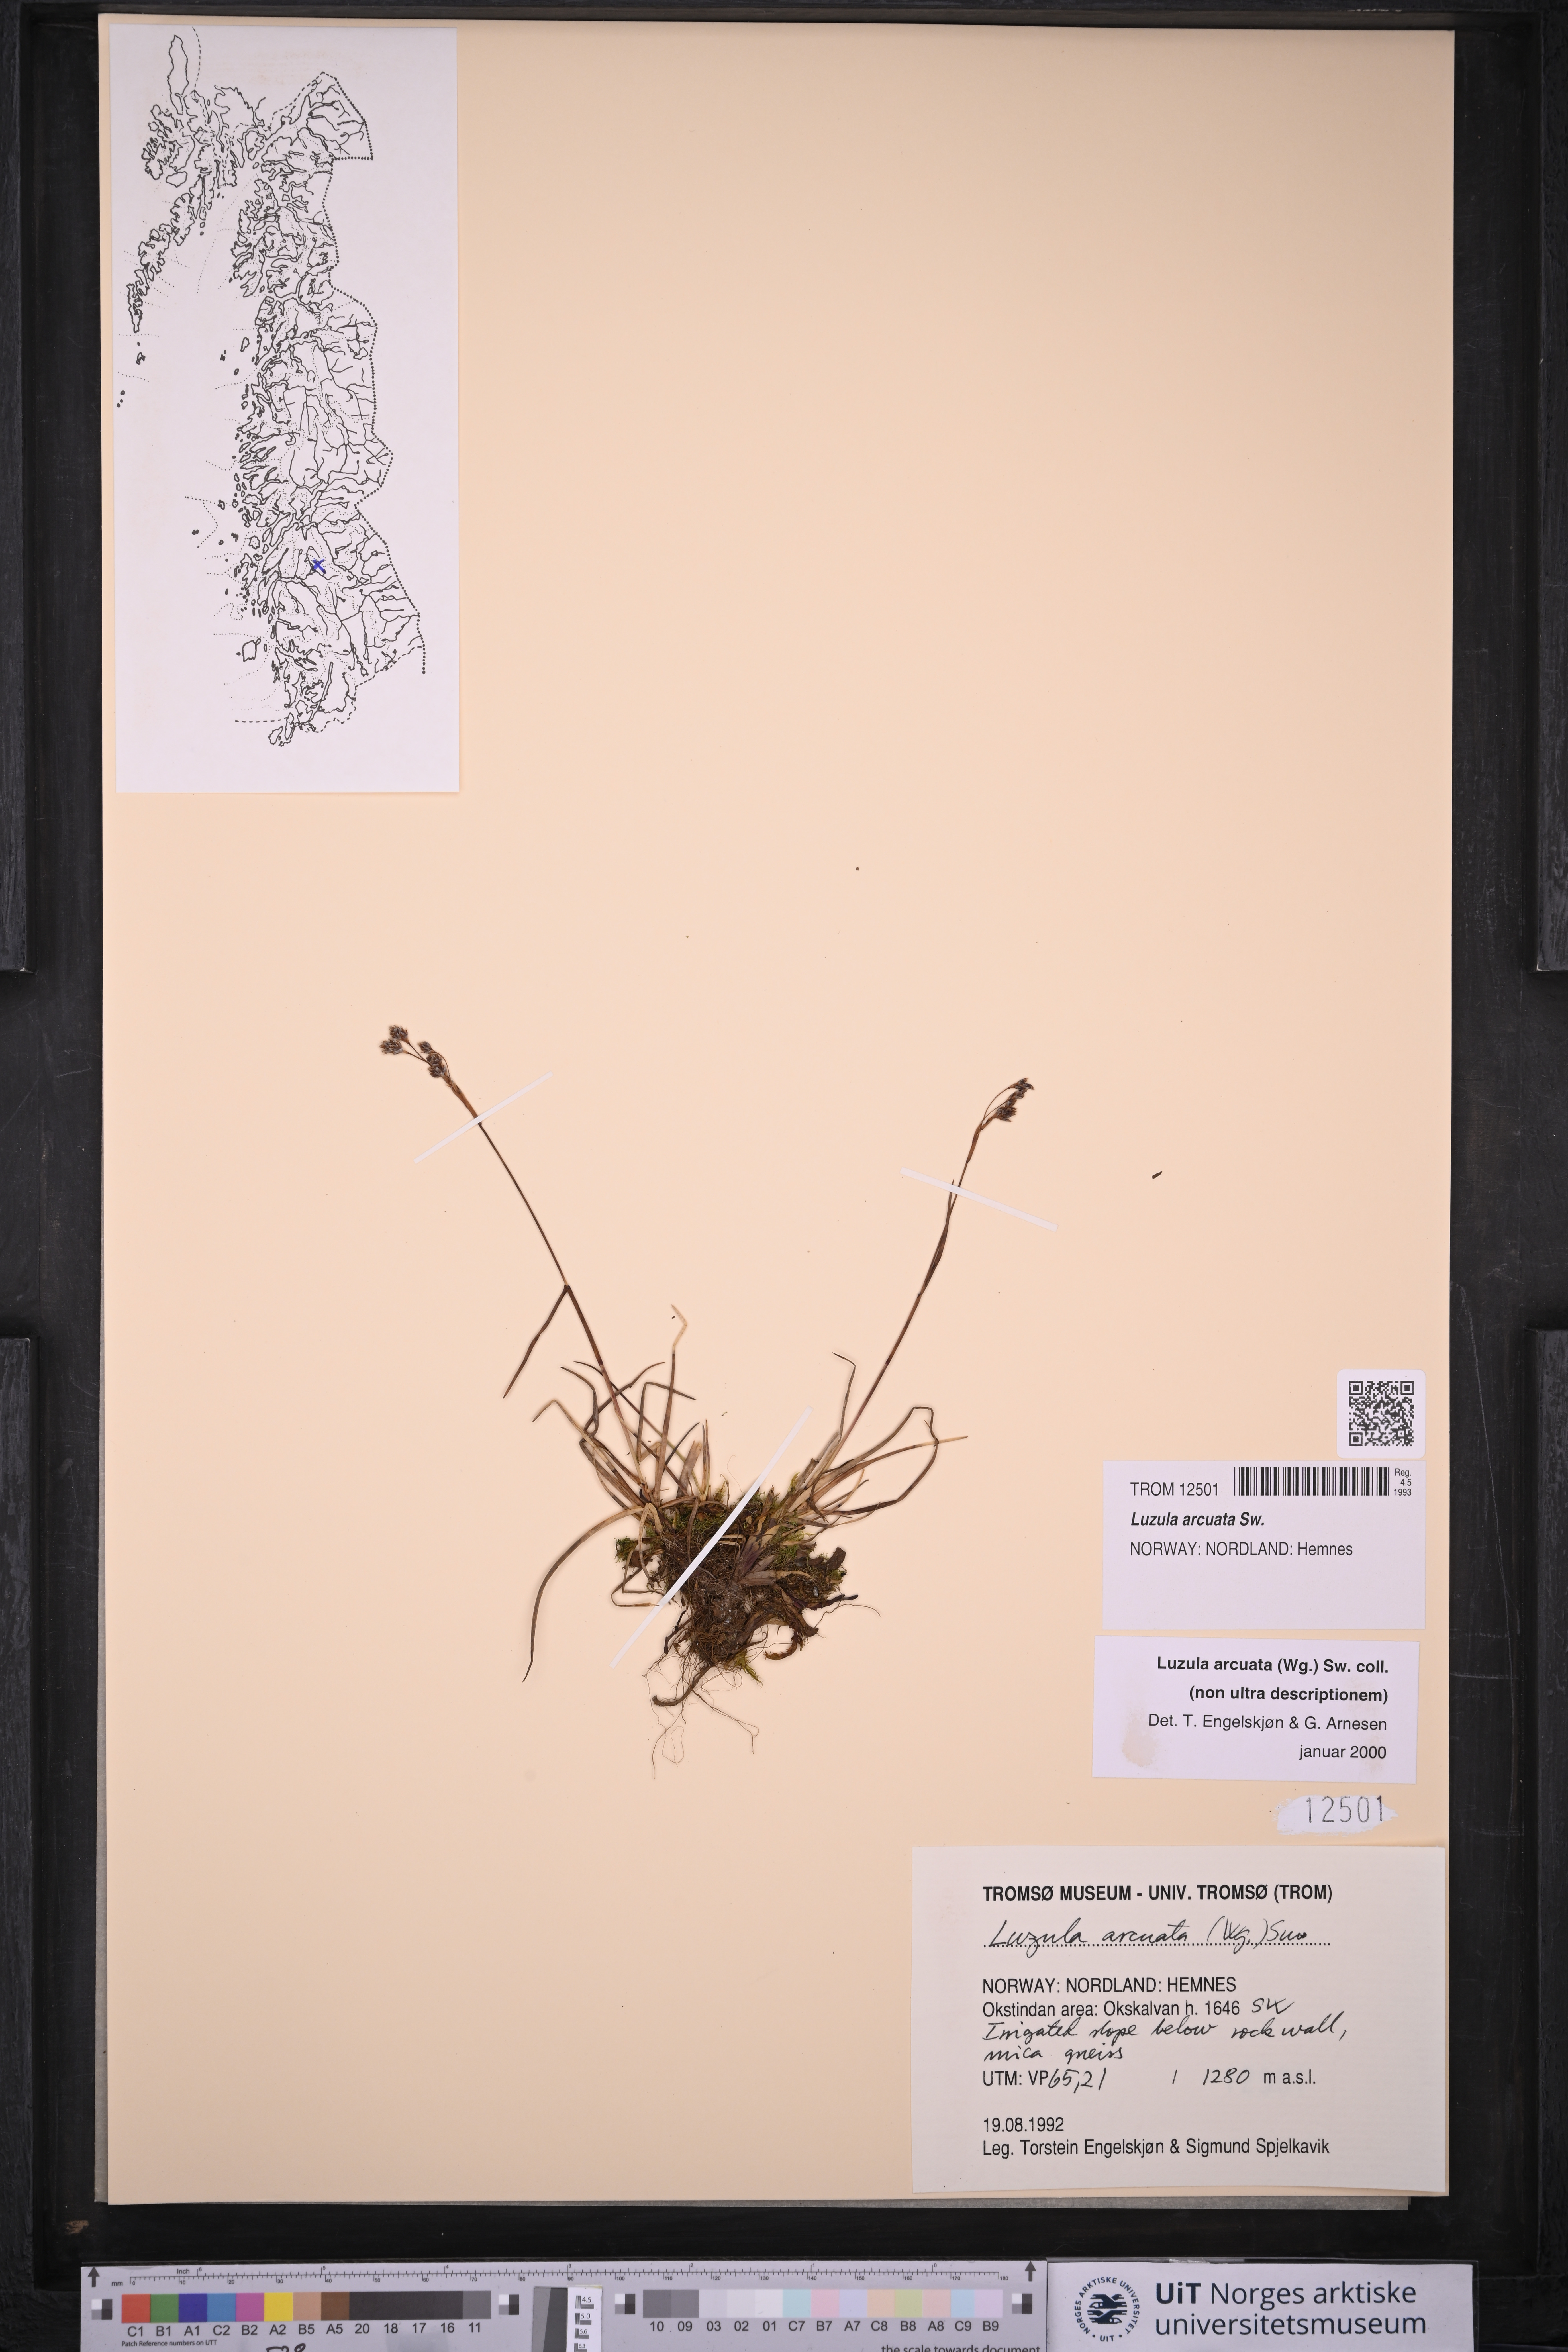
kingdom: Plantae
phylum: Tracheophyta
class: Liliopsida
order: Poales
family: Juncaceae
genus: Luzula
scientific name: Luzula arcuata
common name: Curved wood-rush
